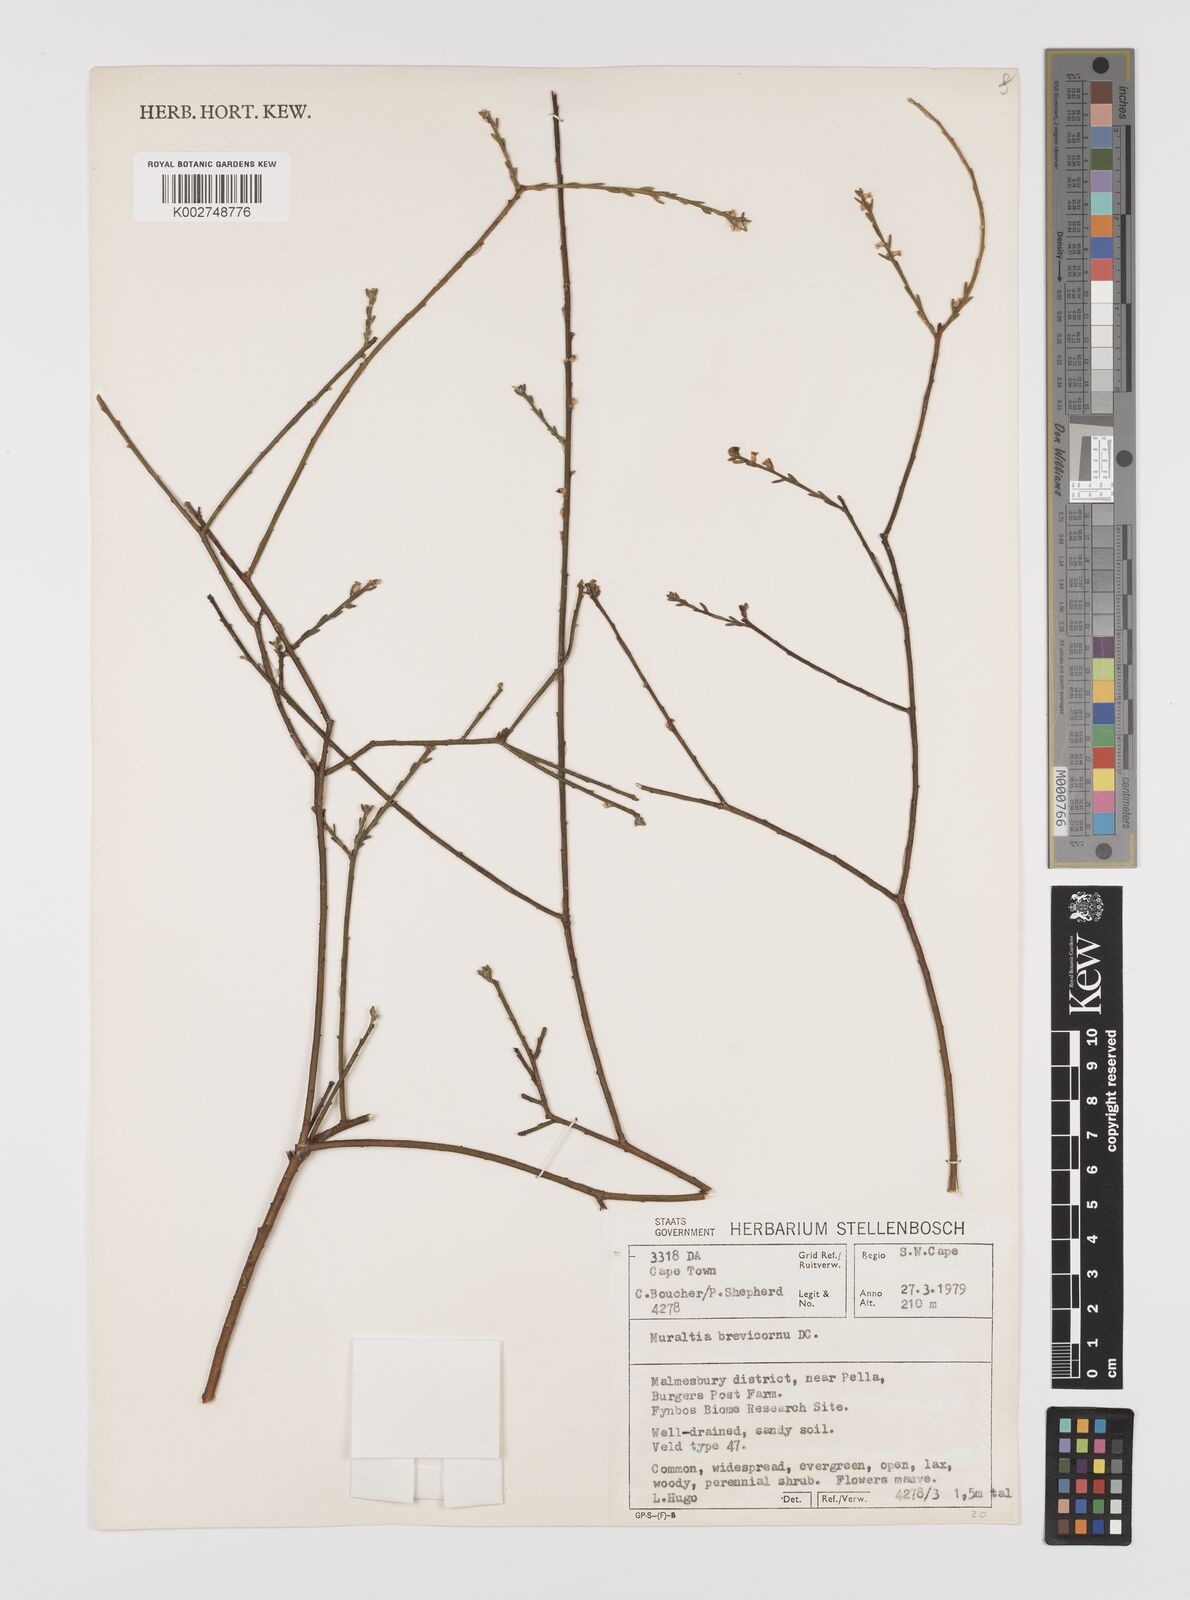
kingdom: Plantae
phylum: Tracheophyta
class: Magnoliopsida
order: Fabales
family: Polygalaceae
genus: Muraltia
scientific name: Muraltia striata
